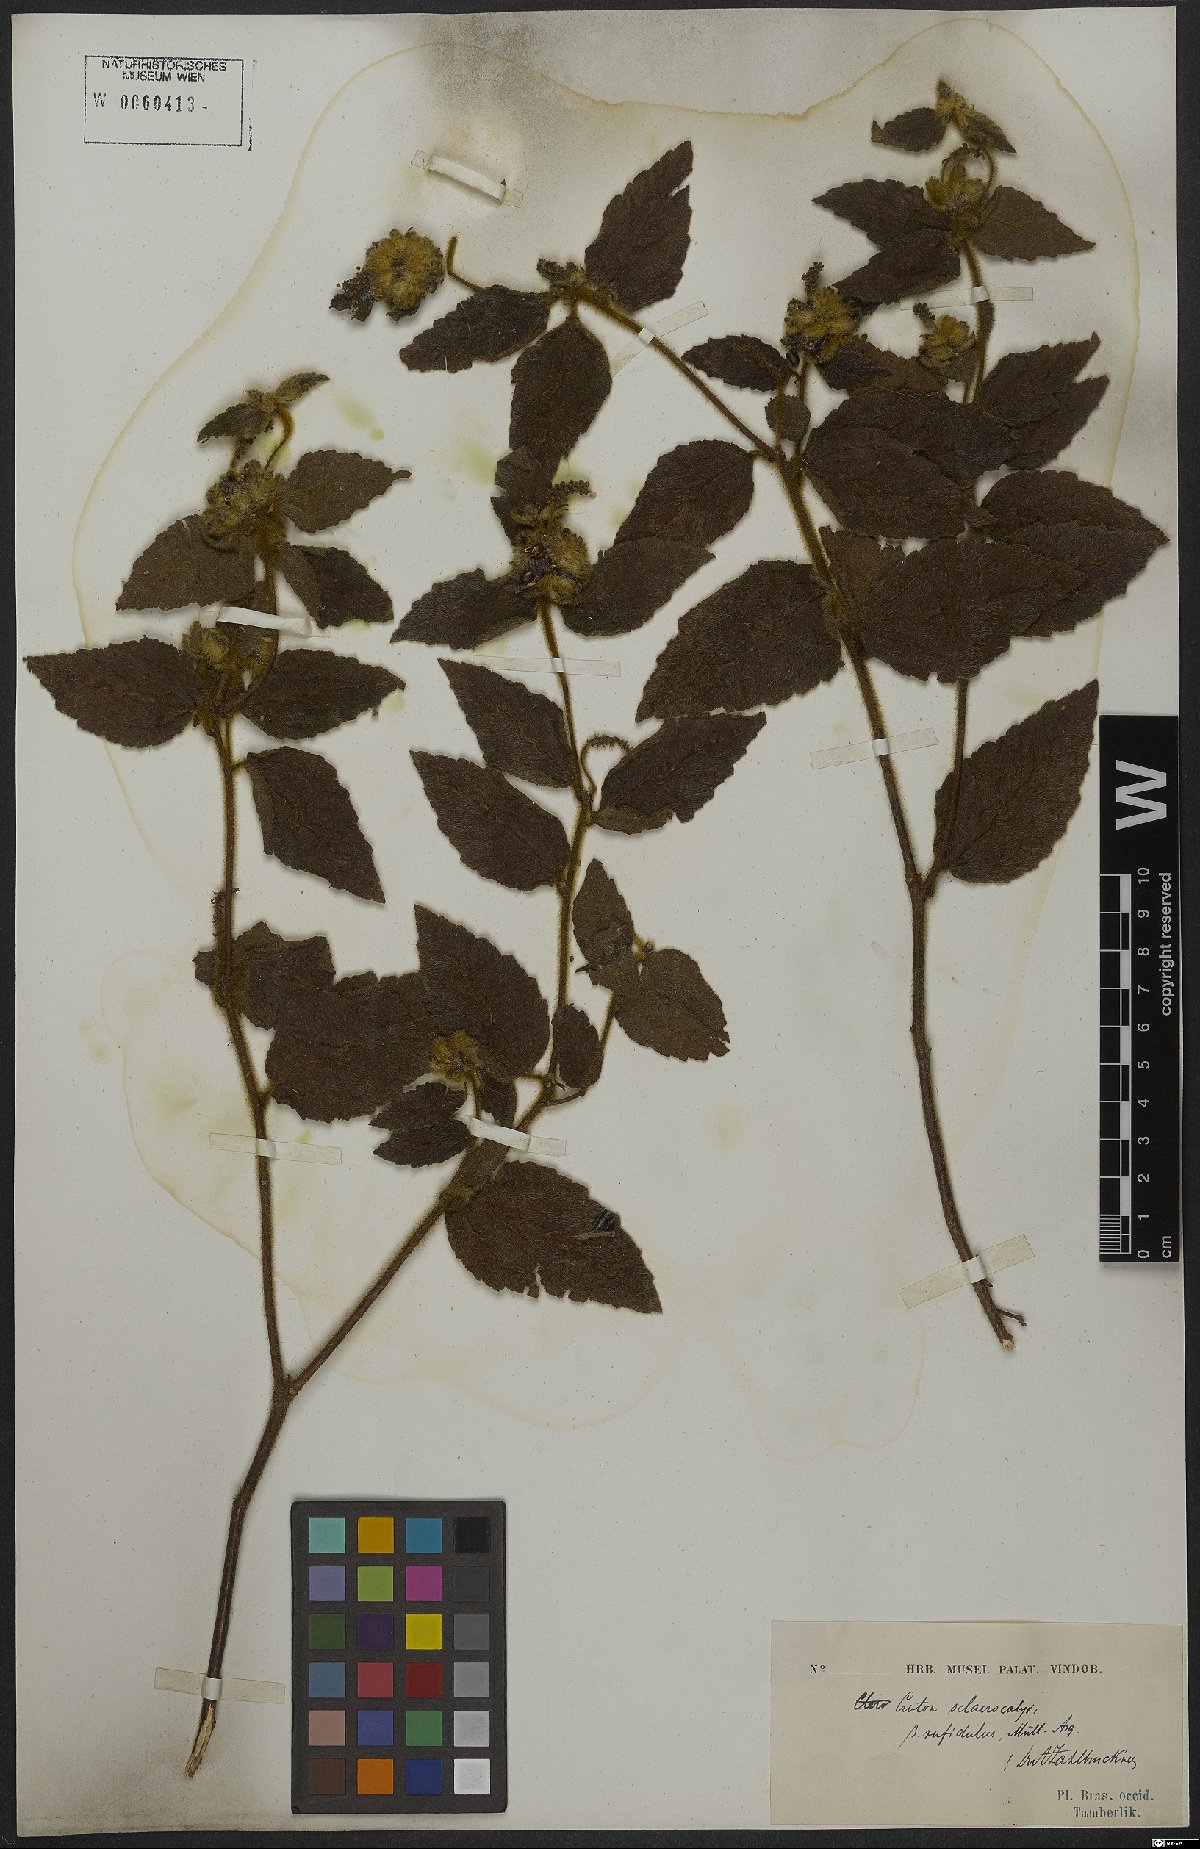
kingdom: Plantae
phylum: Tracheophyta
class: Magnoliopsida
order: Malpighiales
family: Euphorbiaceae
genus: Croton
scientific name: Croton sclerocalyx
